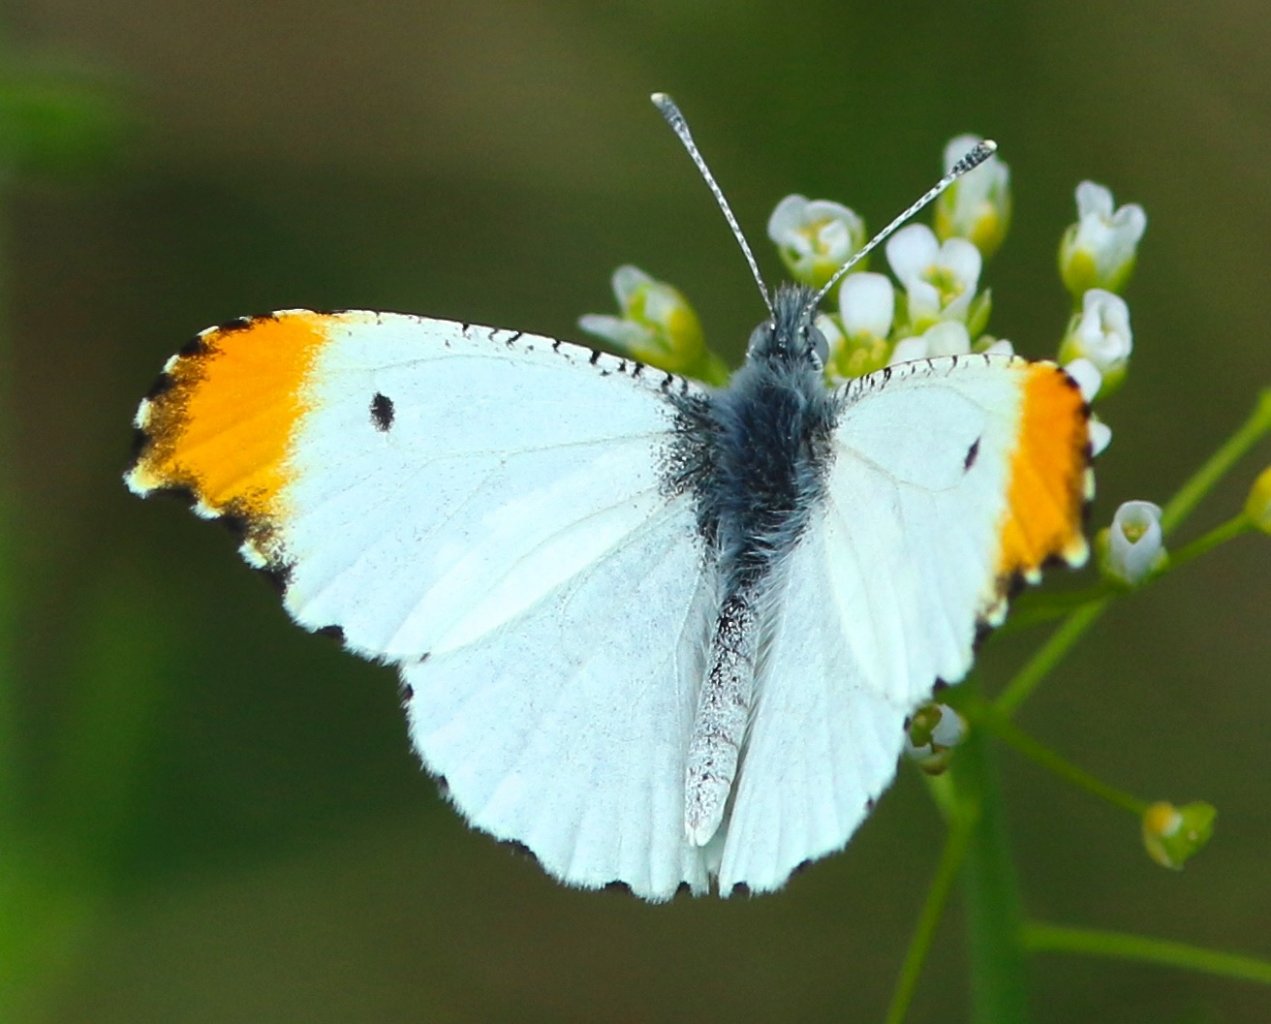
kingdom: Animalia
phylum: Arthropoda
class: Insecta
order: Lepidoptera
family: Pieridae
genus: Anthocharis
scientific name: Anthocharis midea
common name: Falcate Orangetip
